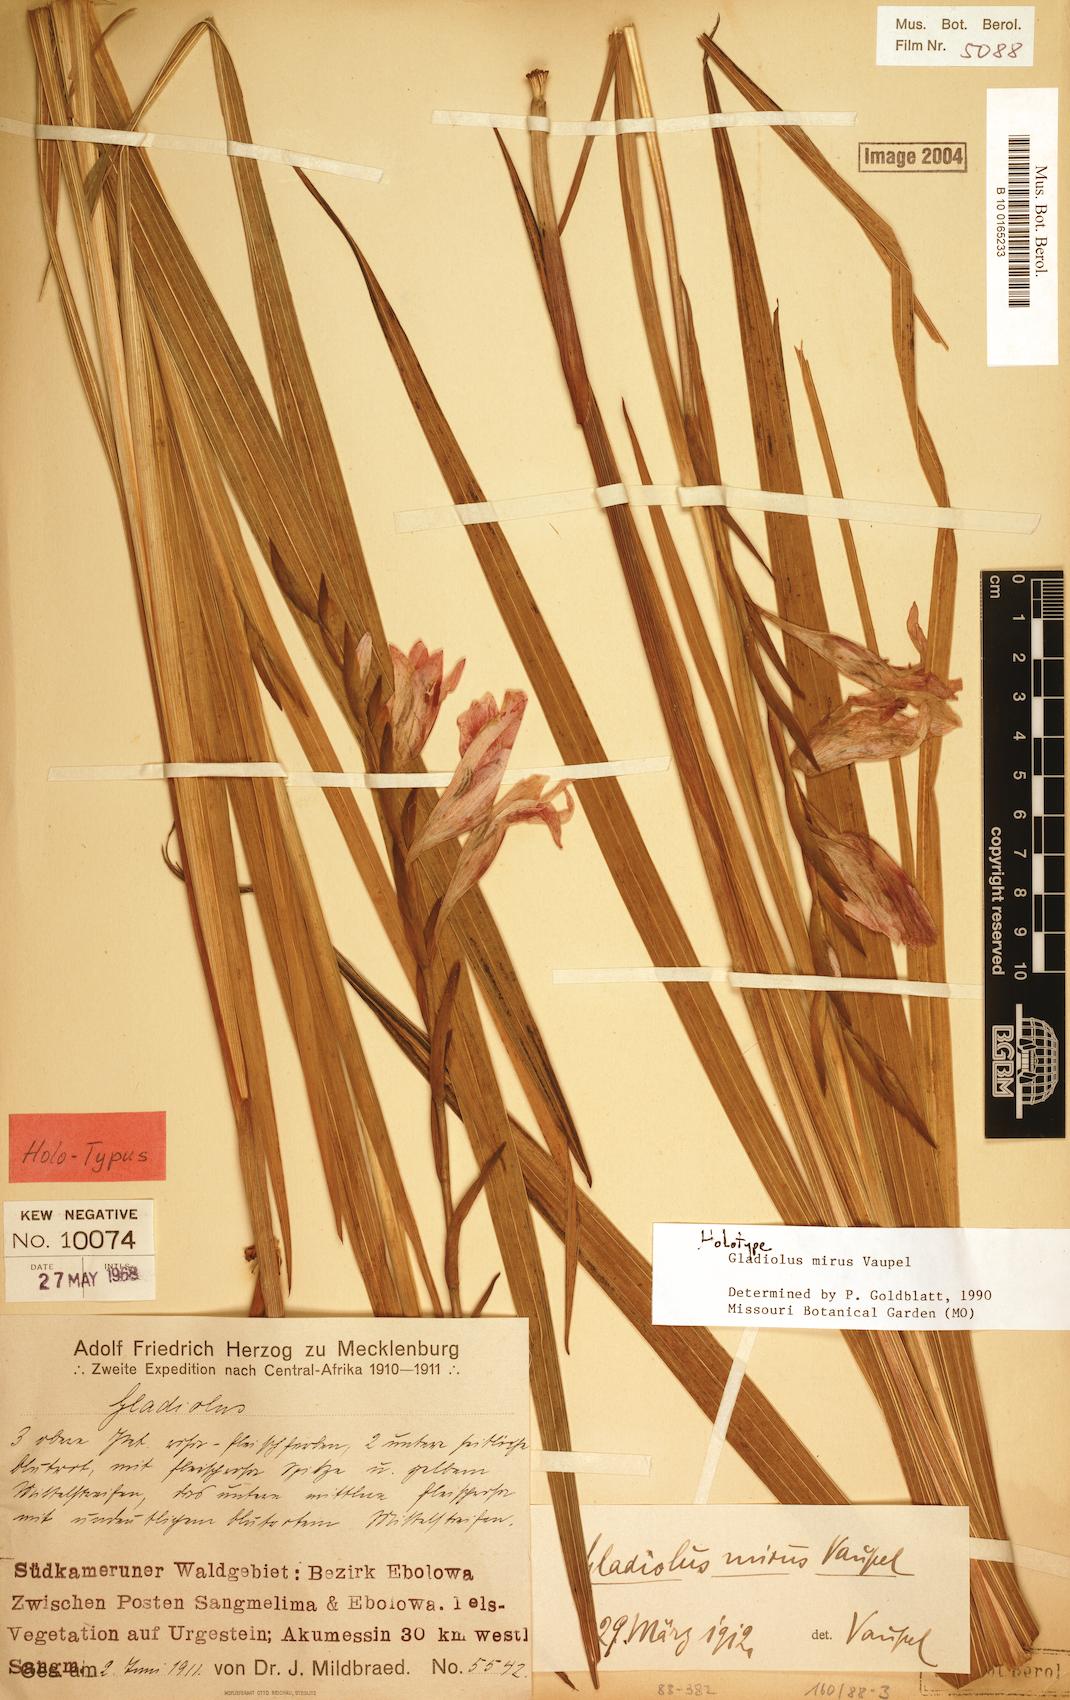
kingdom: Plantae
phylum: Tracheophyta
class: Liliopsida
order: Asparagales
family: Iridaceae
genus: Gladiolus
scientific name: Gladiolus mirus
